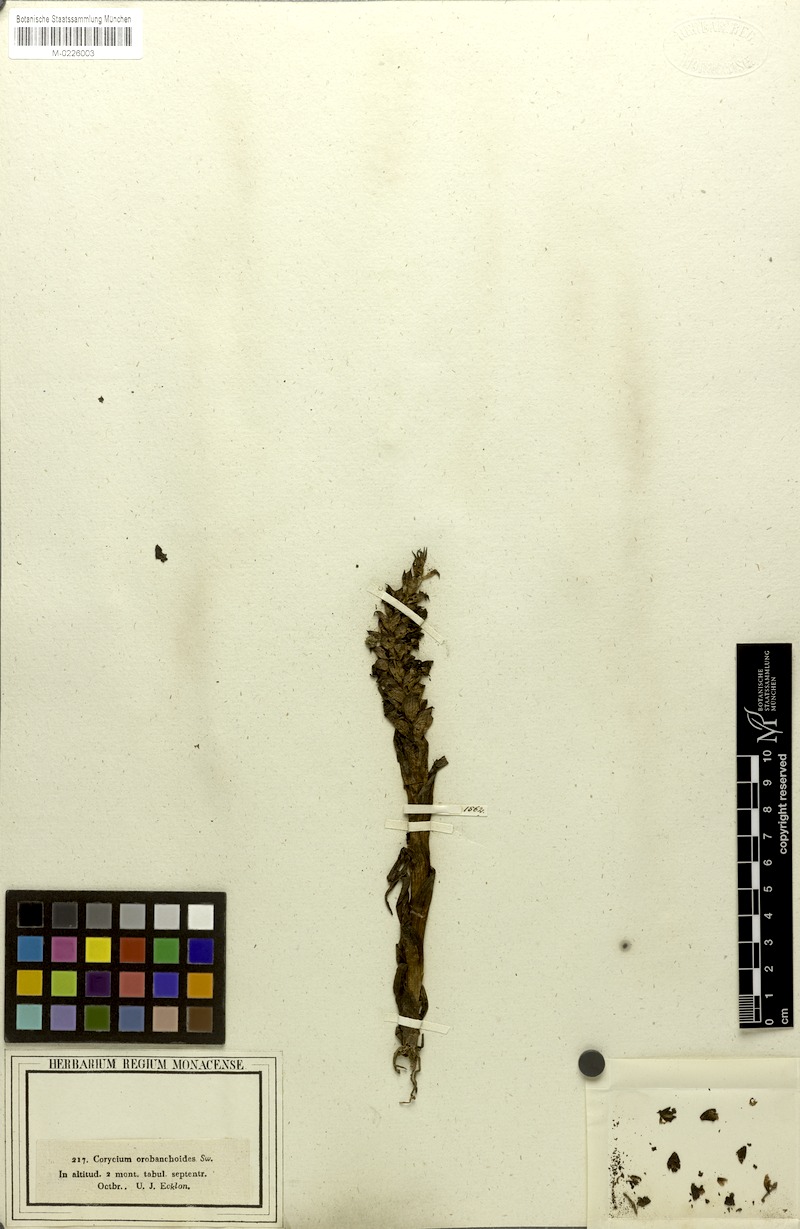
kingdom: Plantae
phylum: Tracheophyta
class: Liliopsida
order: Asparagales
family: Orchidaceae
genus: Corycium
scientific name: Corycium orobanchoides
